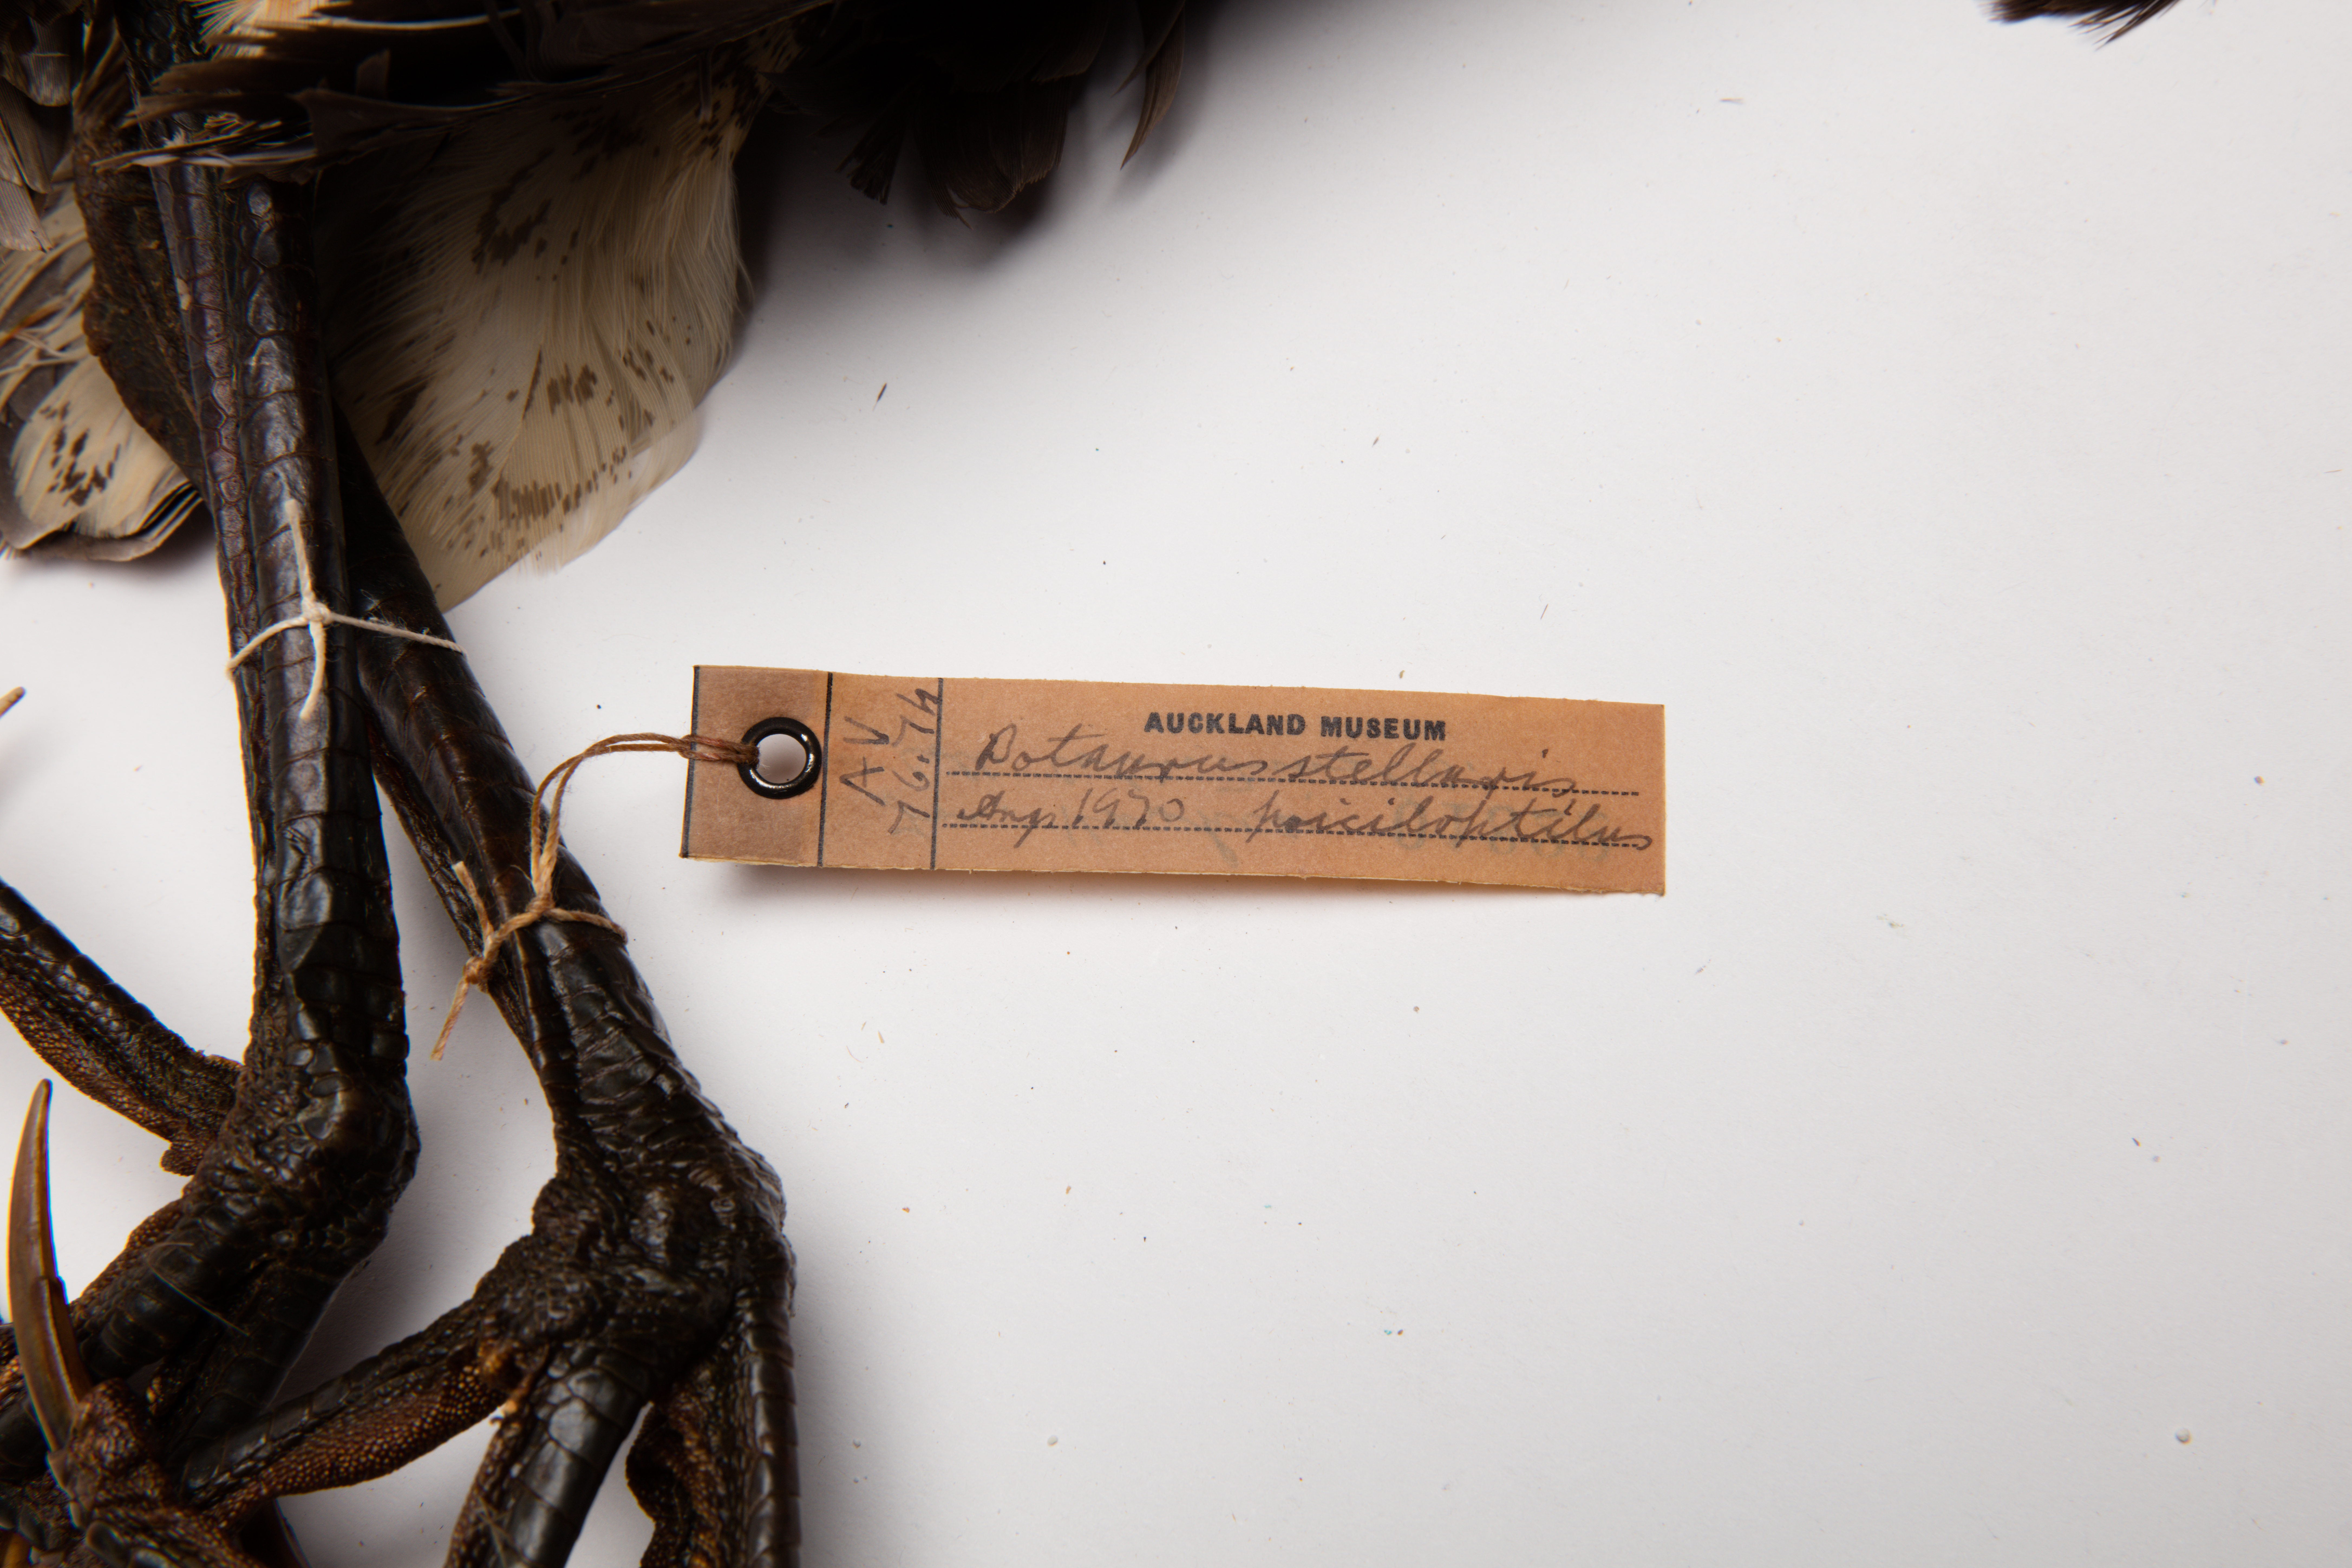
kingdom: Animalia
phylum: Chordata
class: Aves
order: Pelecaniformes
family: Ardeidae
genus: Botaurus
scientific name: Botaurus poiciloptilus
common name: Australasian bittern
